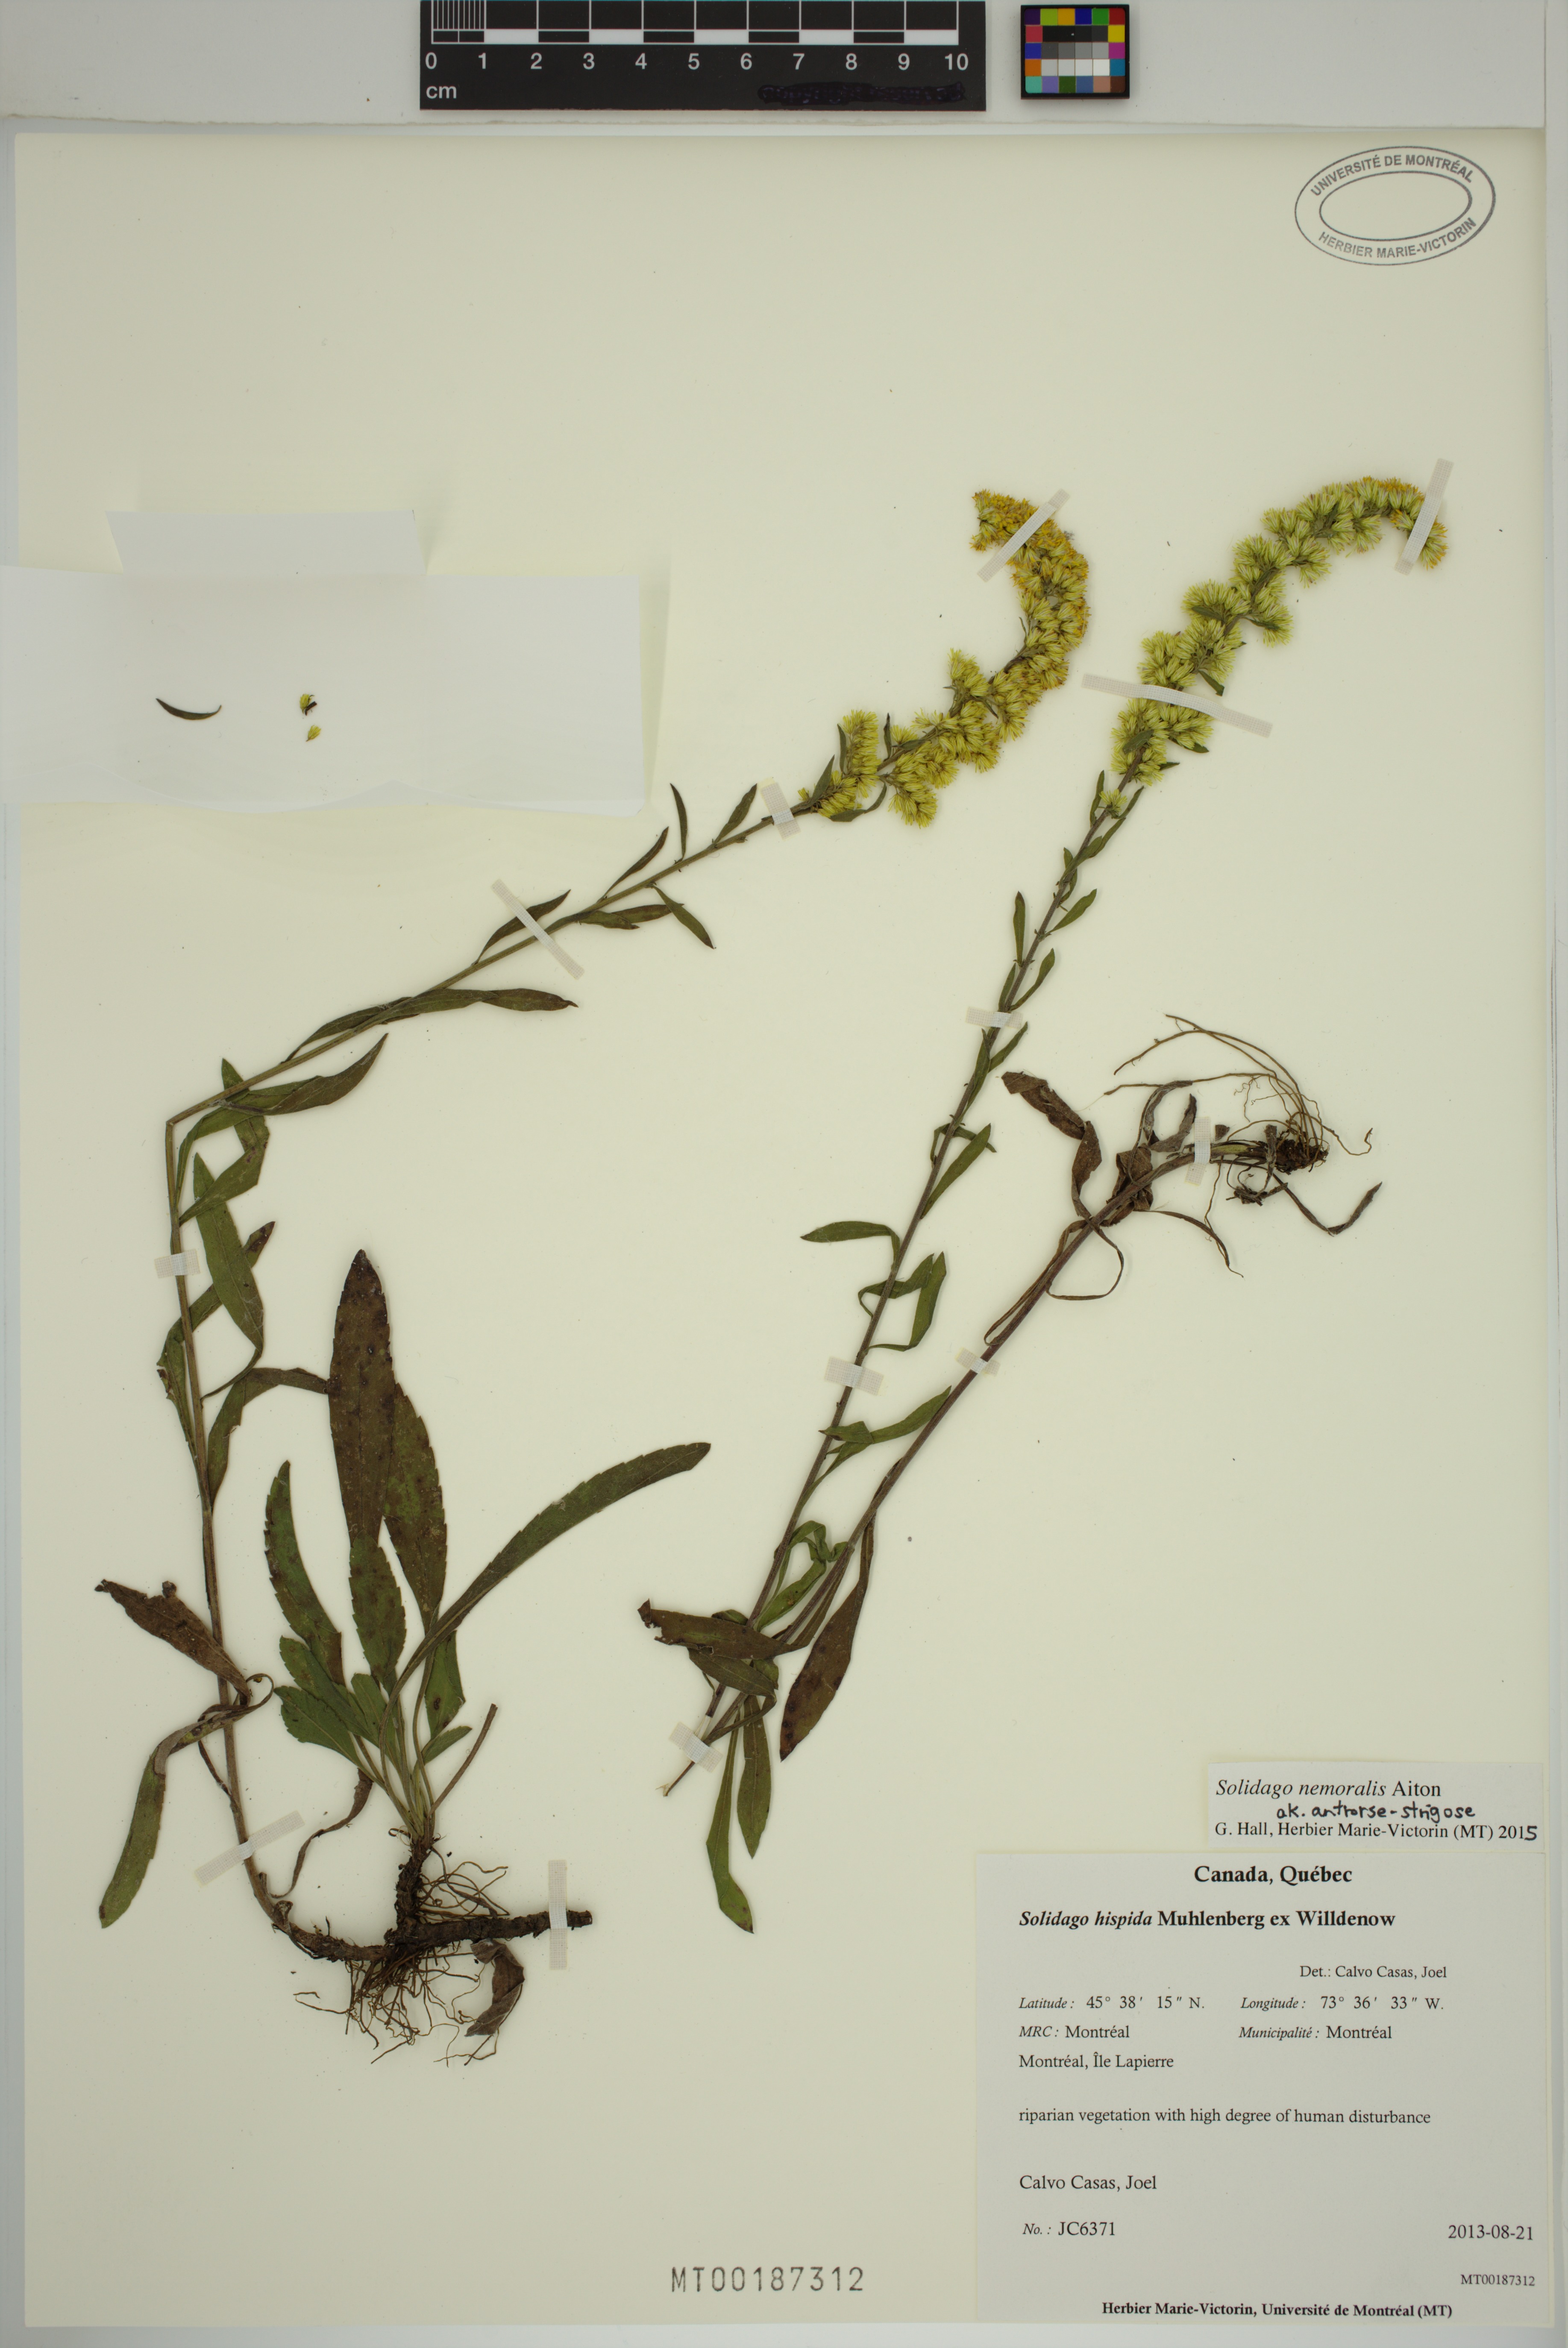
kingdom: Plantae
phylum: Tracheophyta
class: Magnoliopsida
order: Asterales
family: Asteraceae
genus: Solidago
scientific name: Solidago nemoralis
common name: Grey goldenrod
